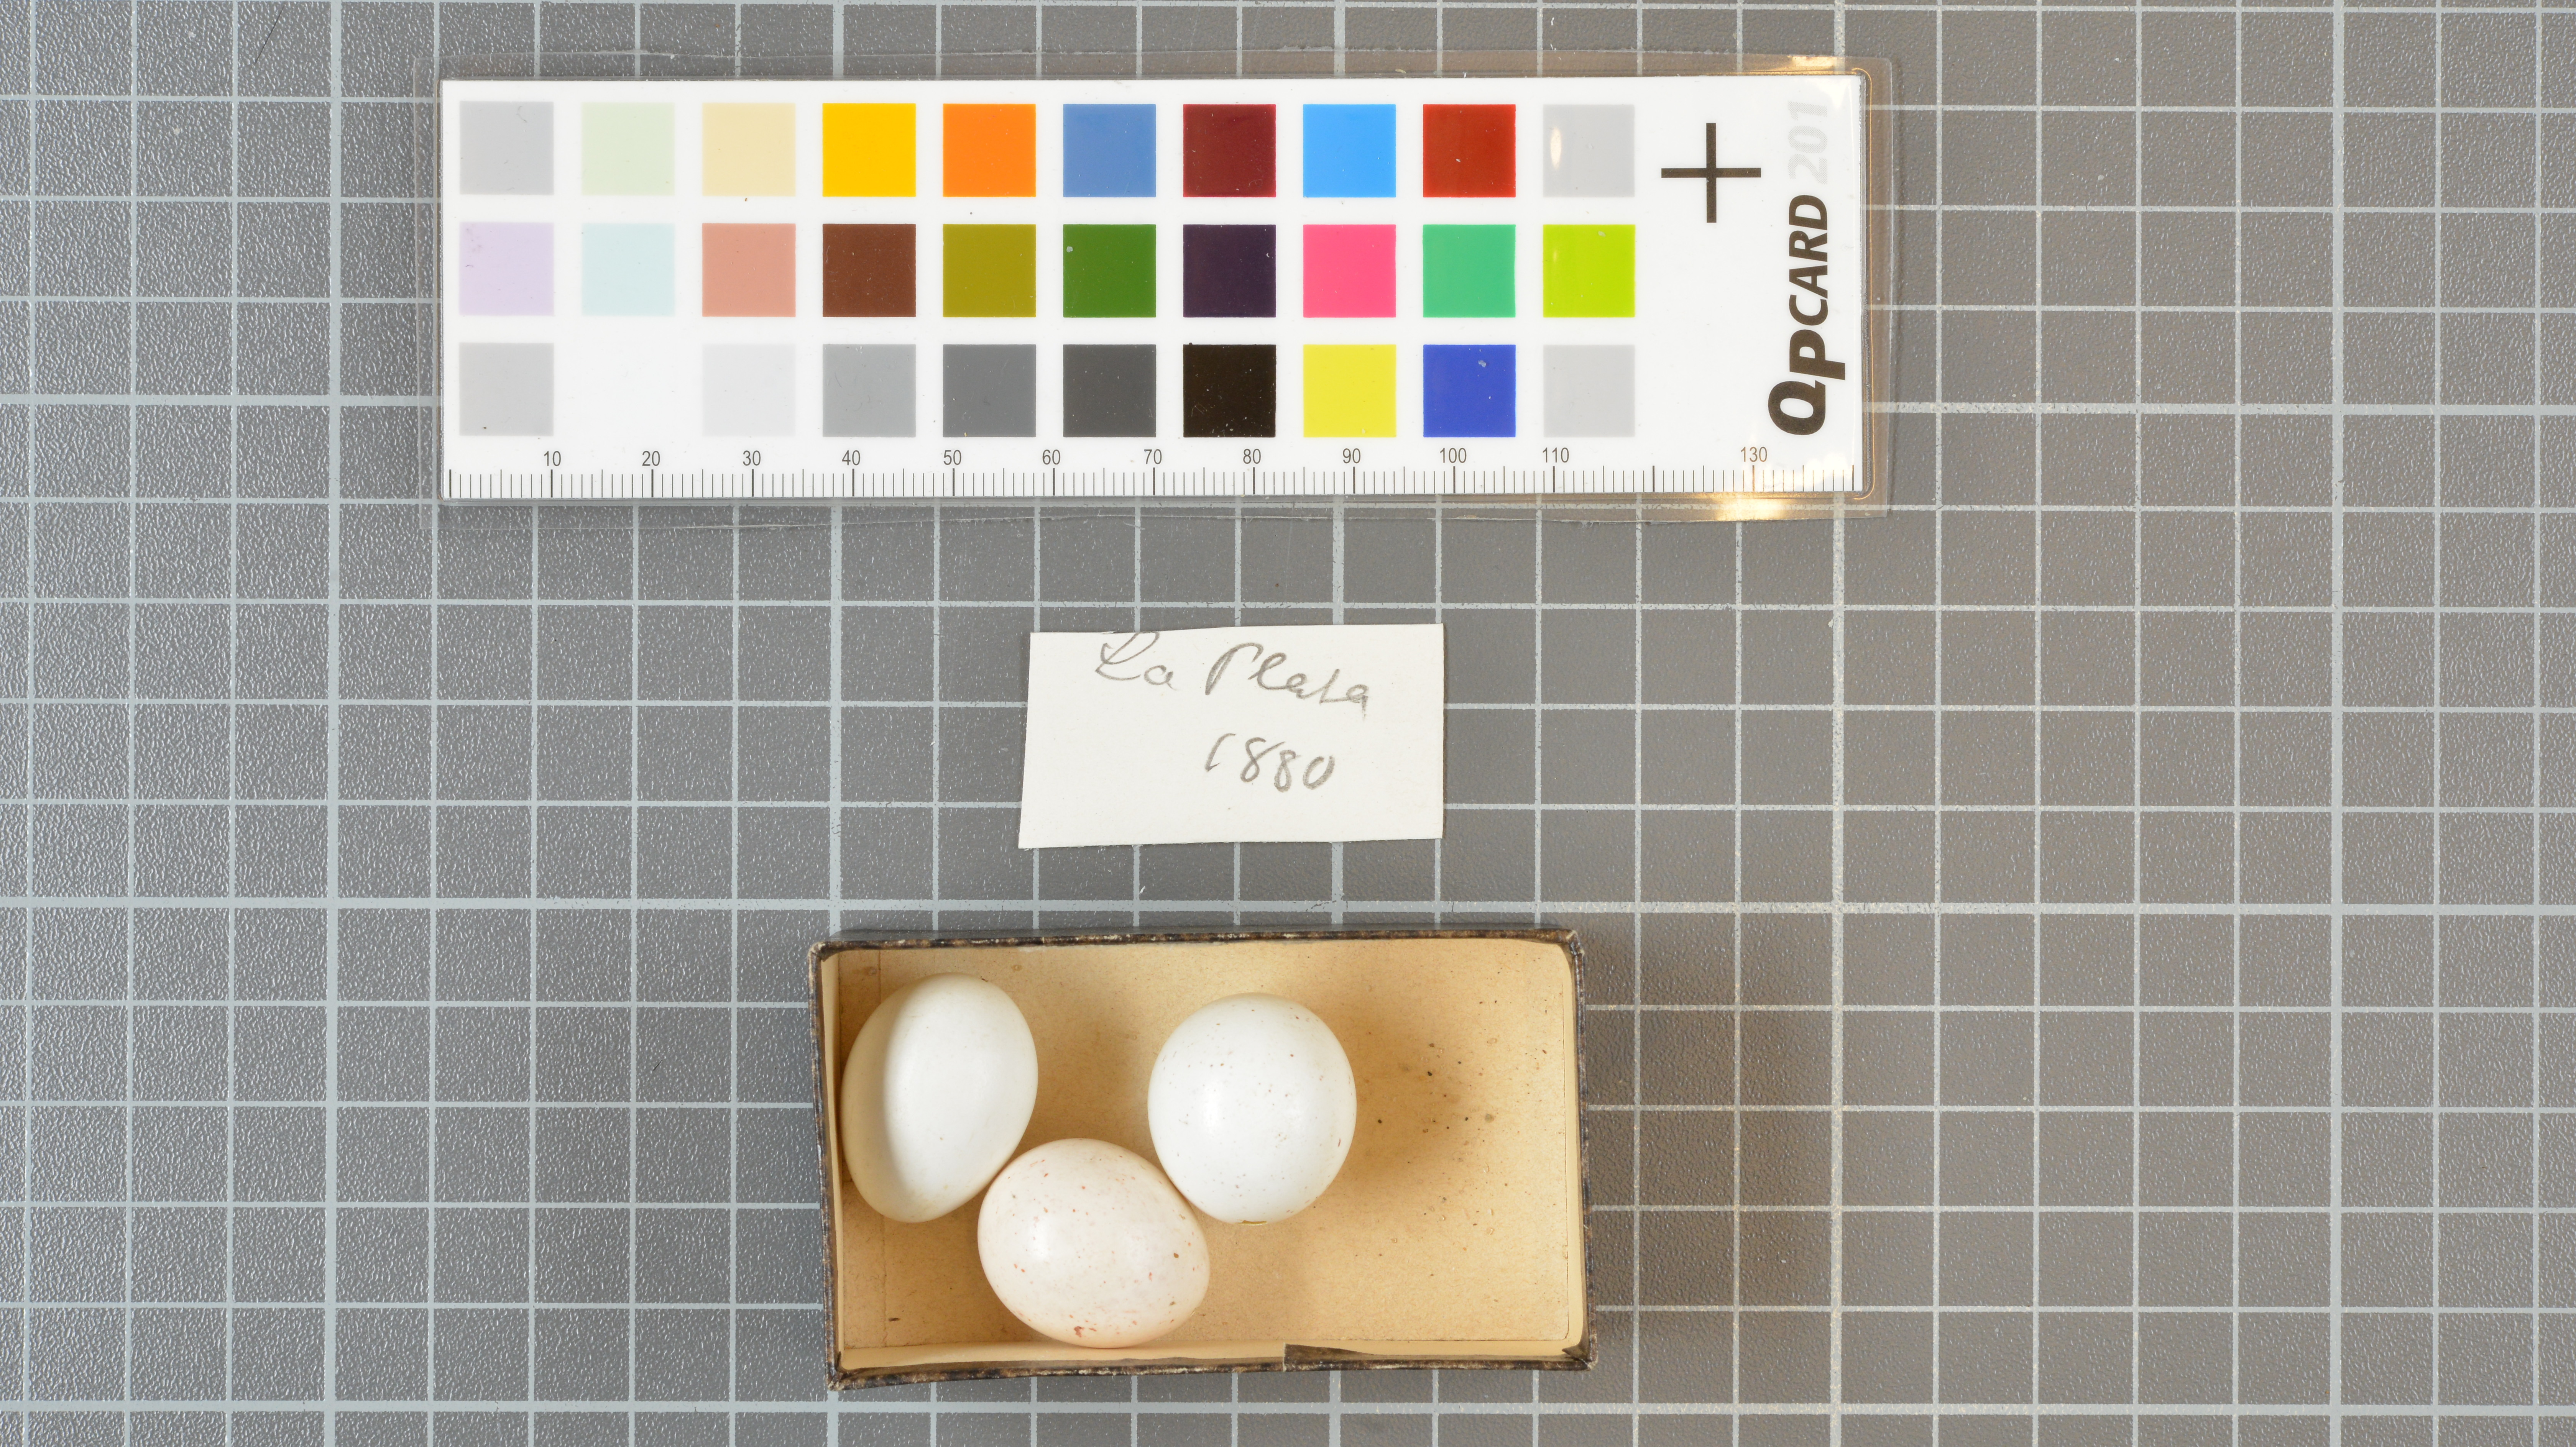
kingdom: Animalia
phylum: Chordata
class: Aves
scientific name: Aves
